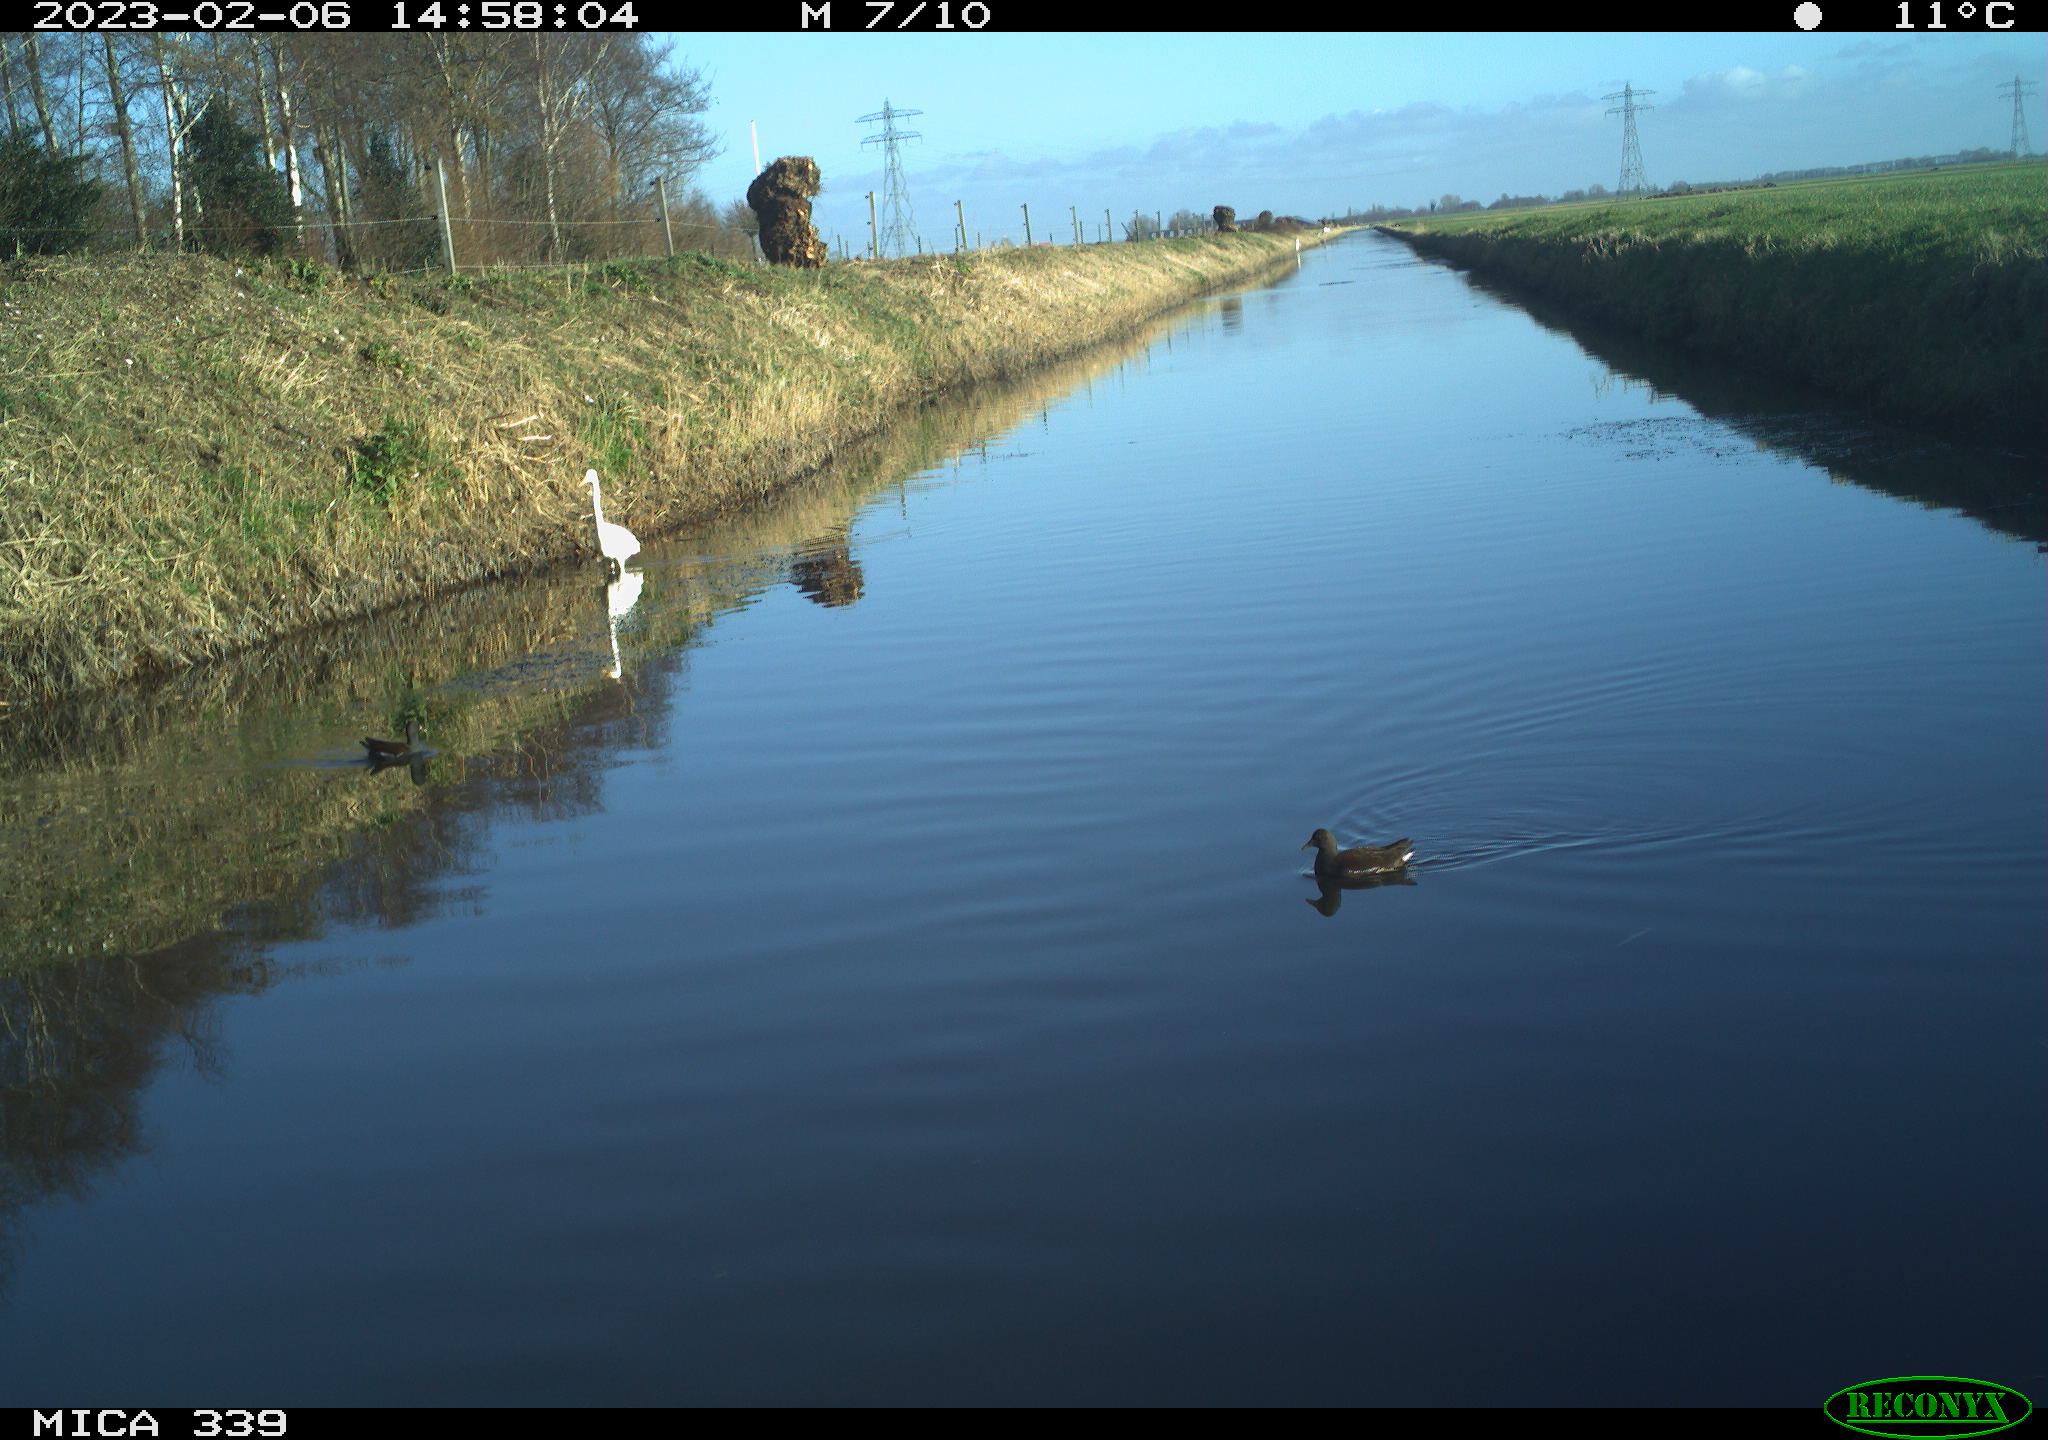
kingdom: Animalia
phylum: Chordata
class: Aves
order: Pelecaniformes
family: Ardeidae
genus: Ardea
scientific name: Ardea alba
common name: Great egret
